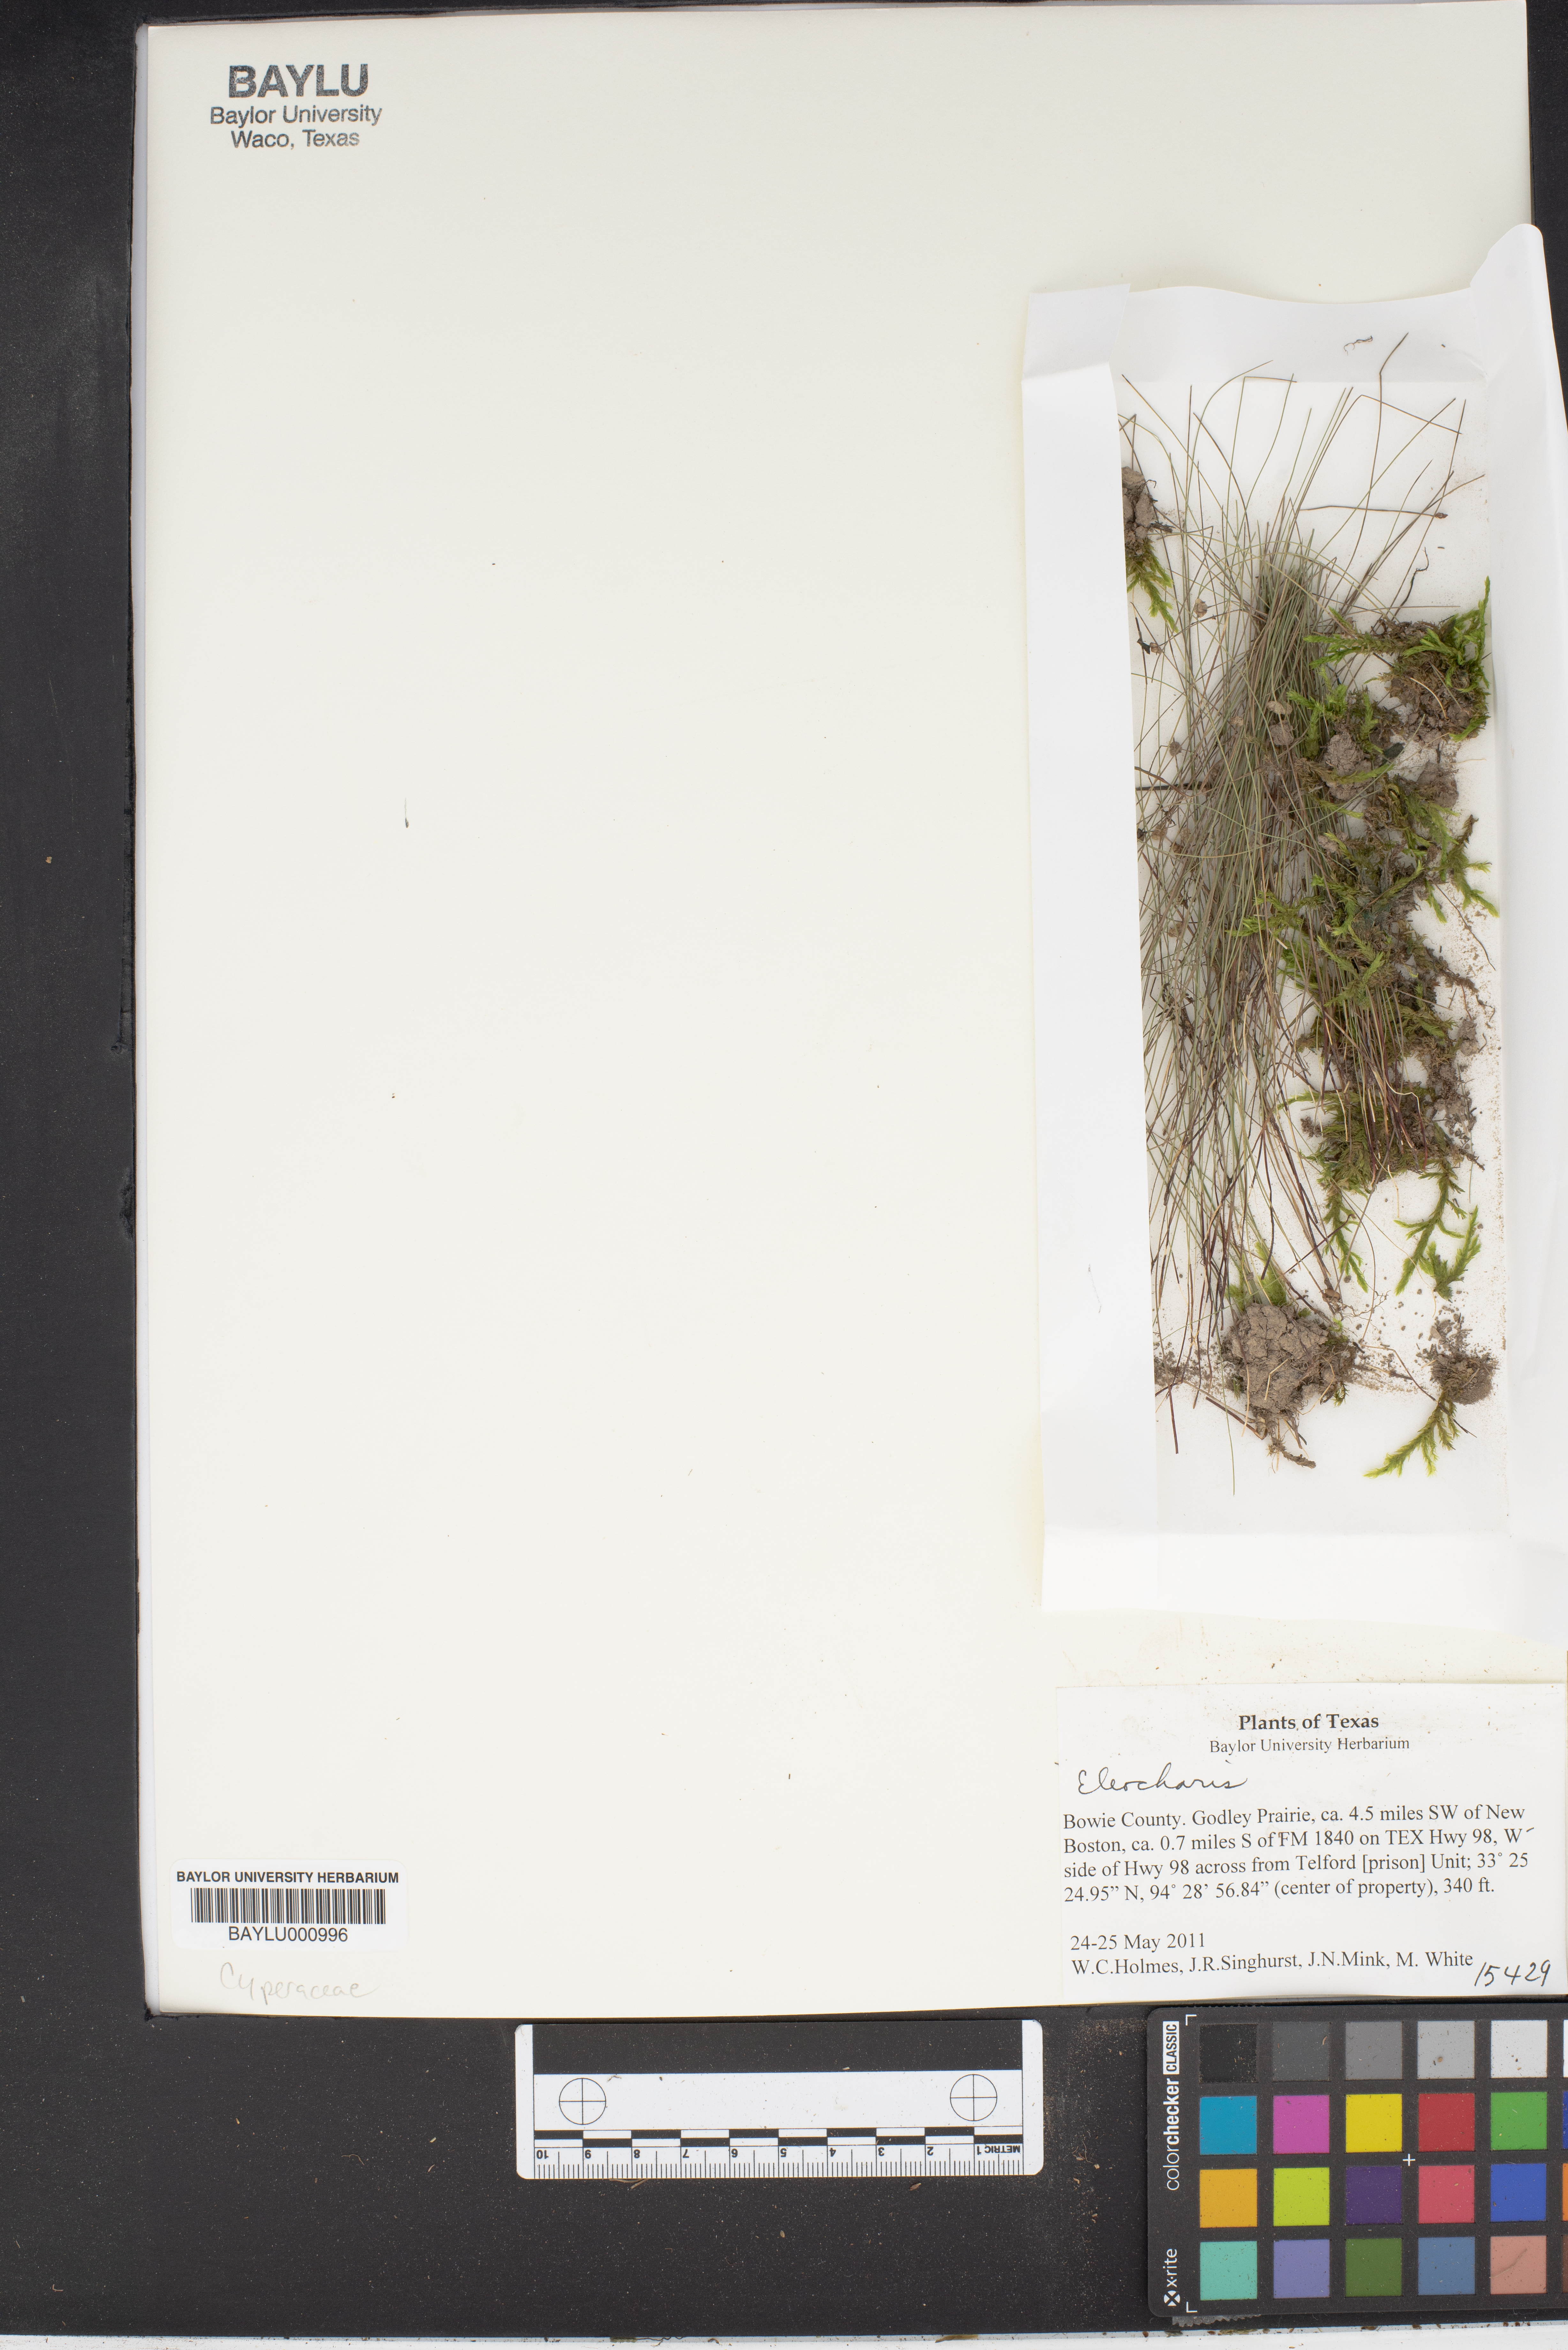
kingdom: Plantae
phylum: Tracheophyta
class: Liliopsida
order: Poales
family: Cyperaceae
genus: Eleocharis
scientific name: Eleocharis
